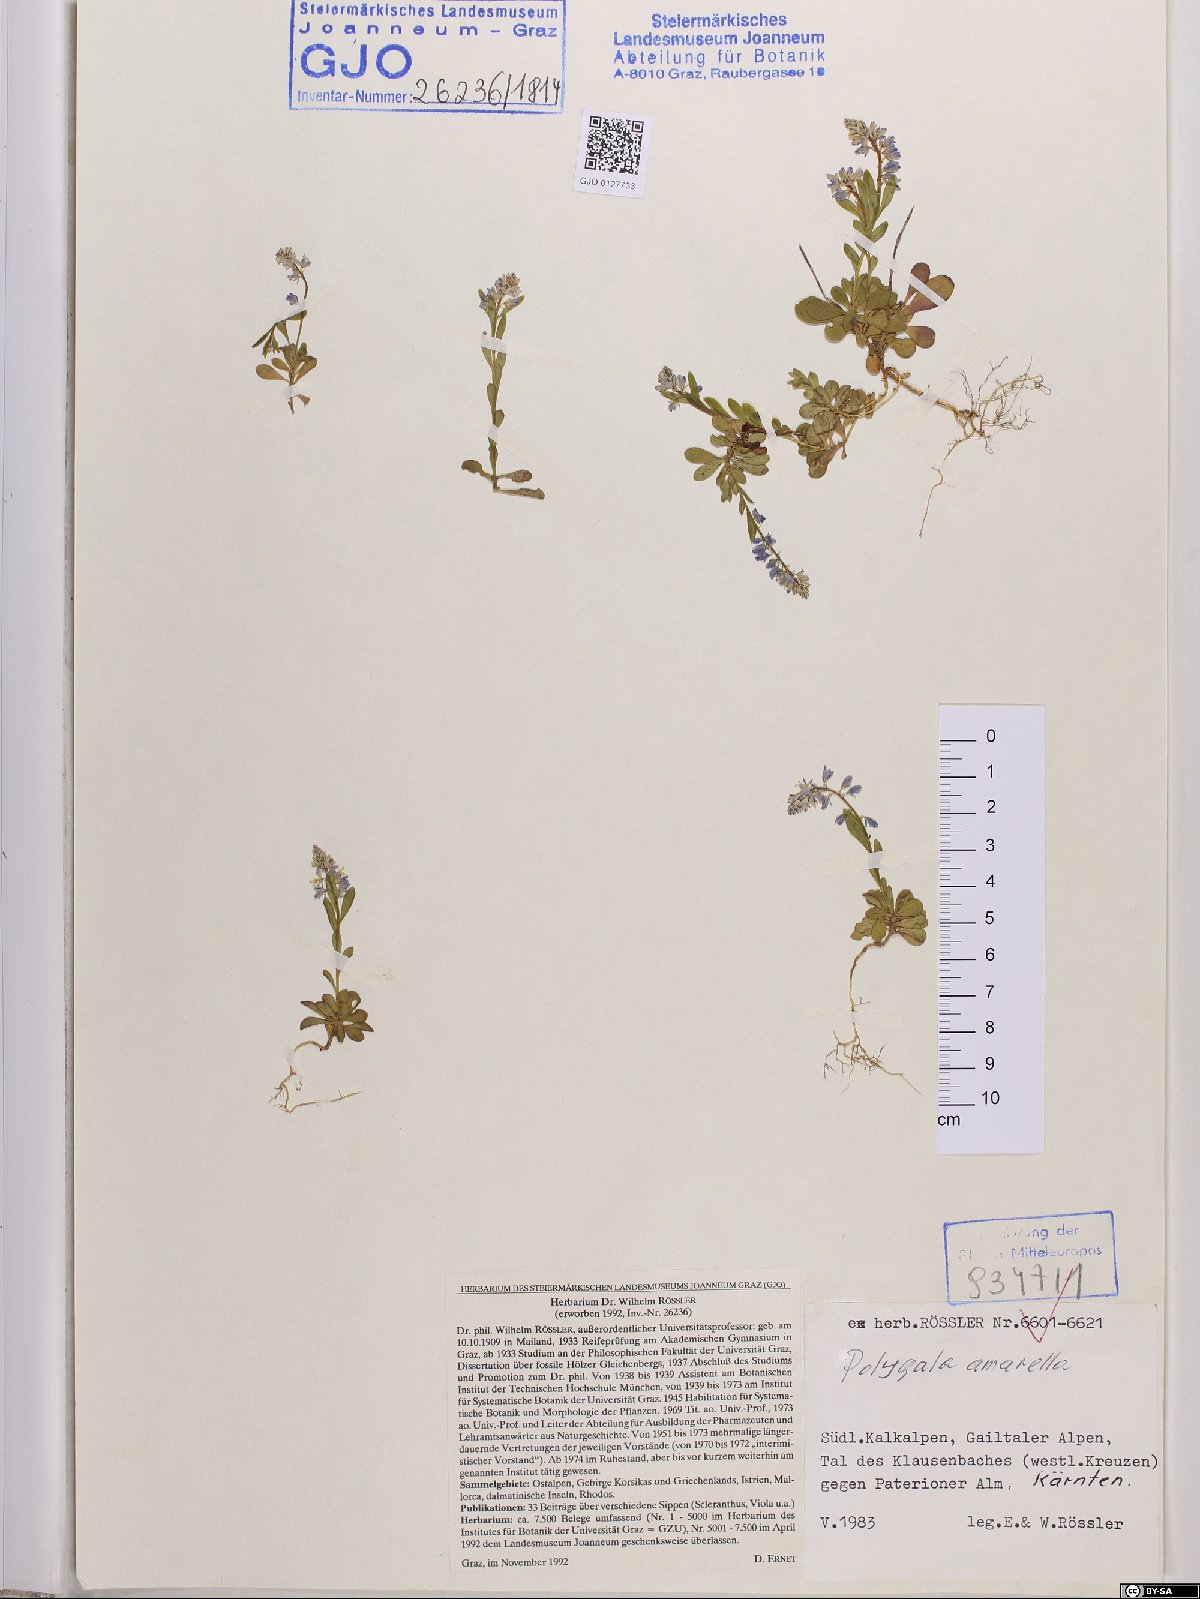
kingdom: Plantae
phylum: Tracheophyta
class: Magnoliopsida
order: Fabales
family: Polygalaceae
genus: Polygala
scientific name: Polygala amarella
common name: Dwarf milkwort
